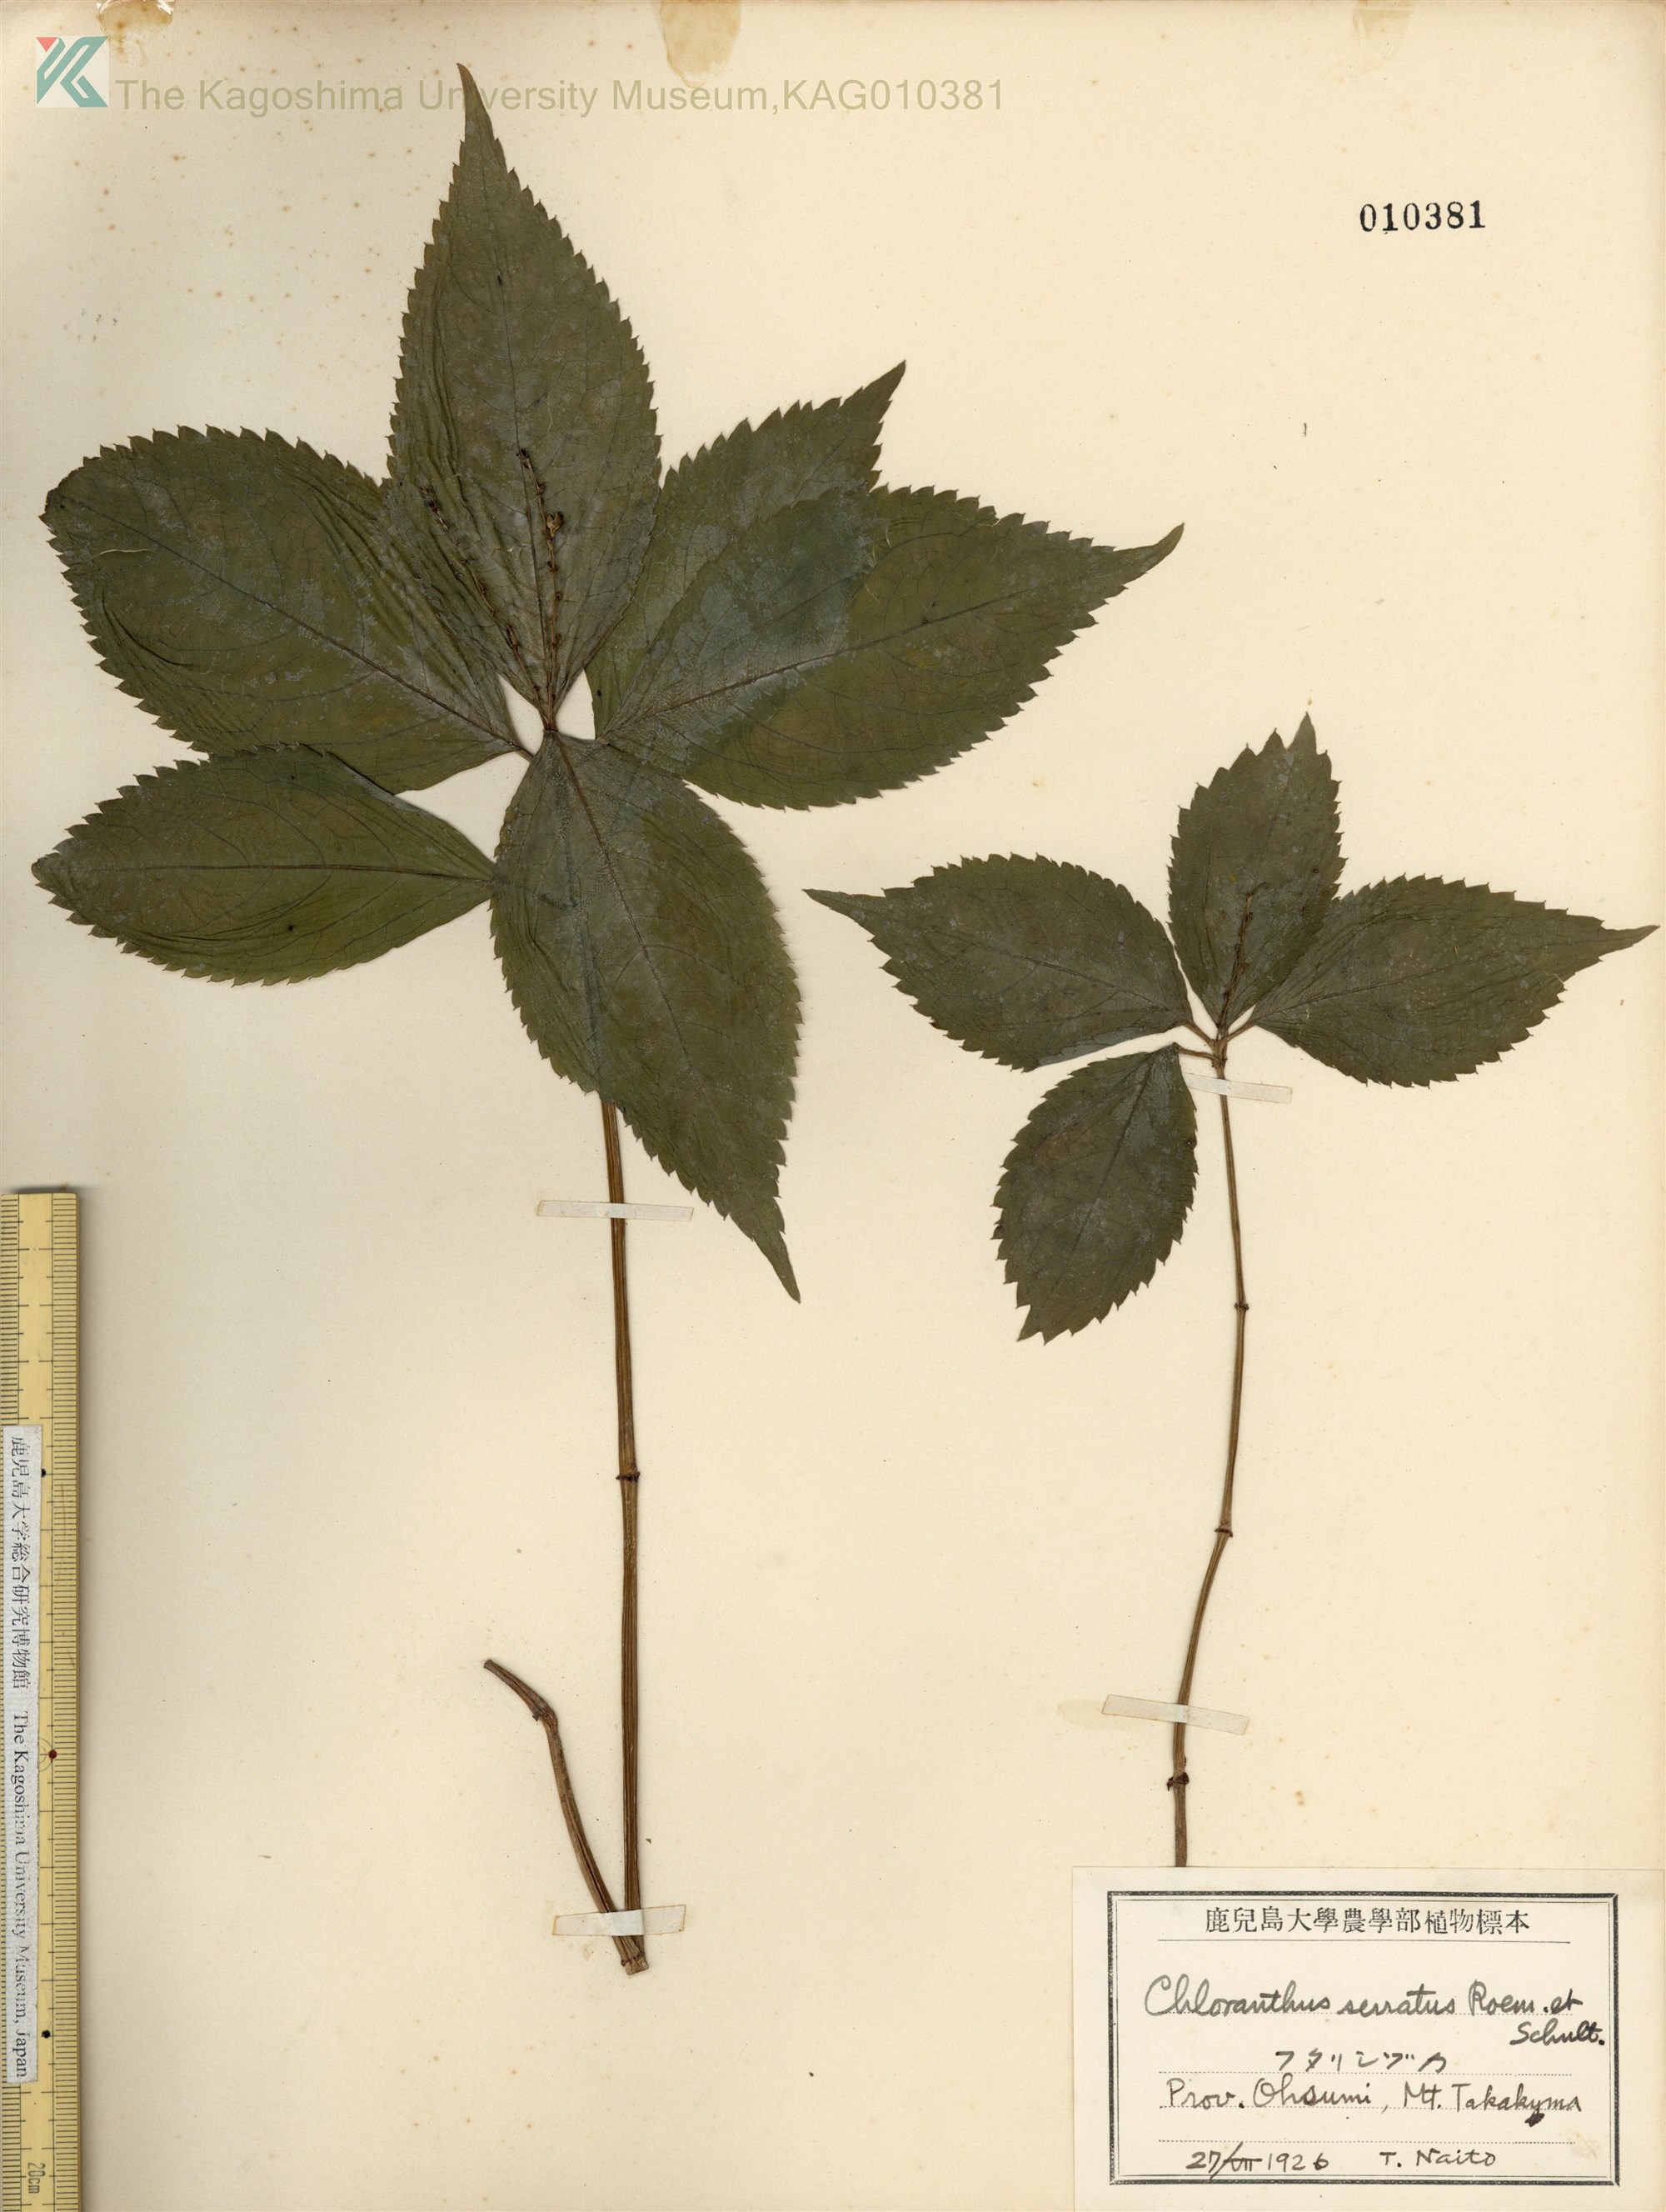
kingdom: Plantae
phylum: Tracheophyta
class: Magnoliopsida
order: Chloranthales
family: Chloranthaceae
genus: Chloranthus
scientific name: Chloranthus serratus
